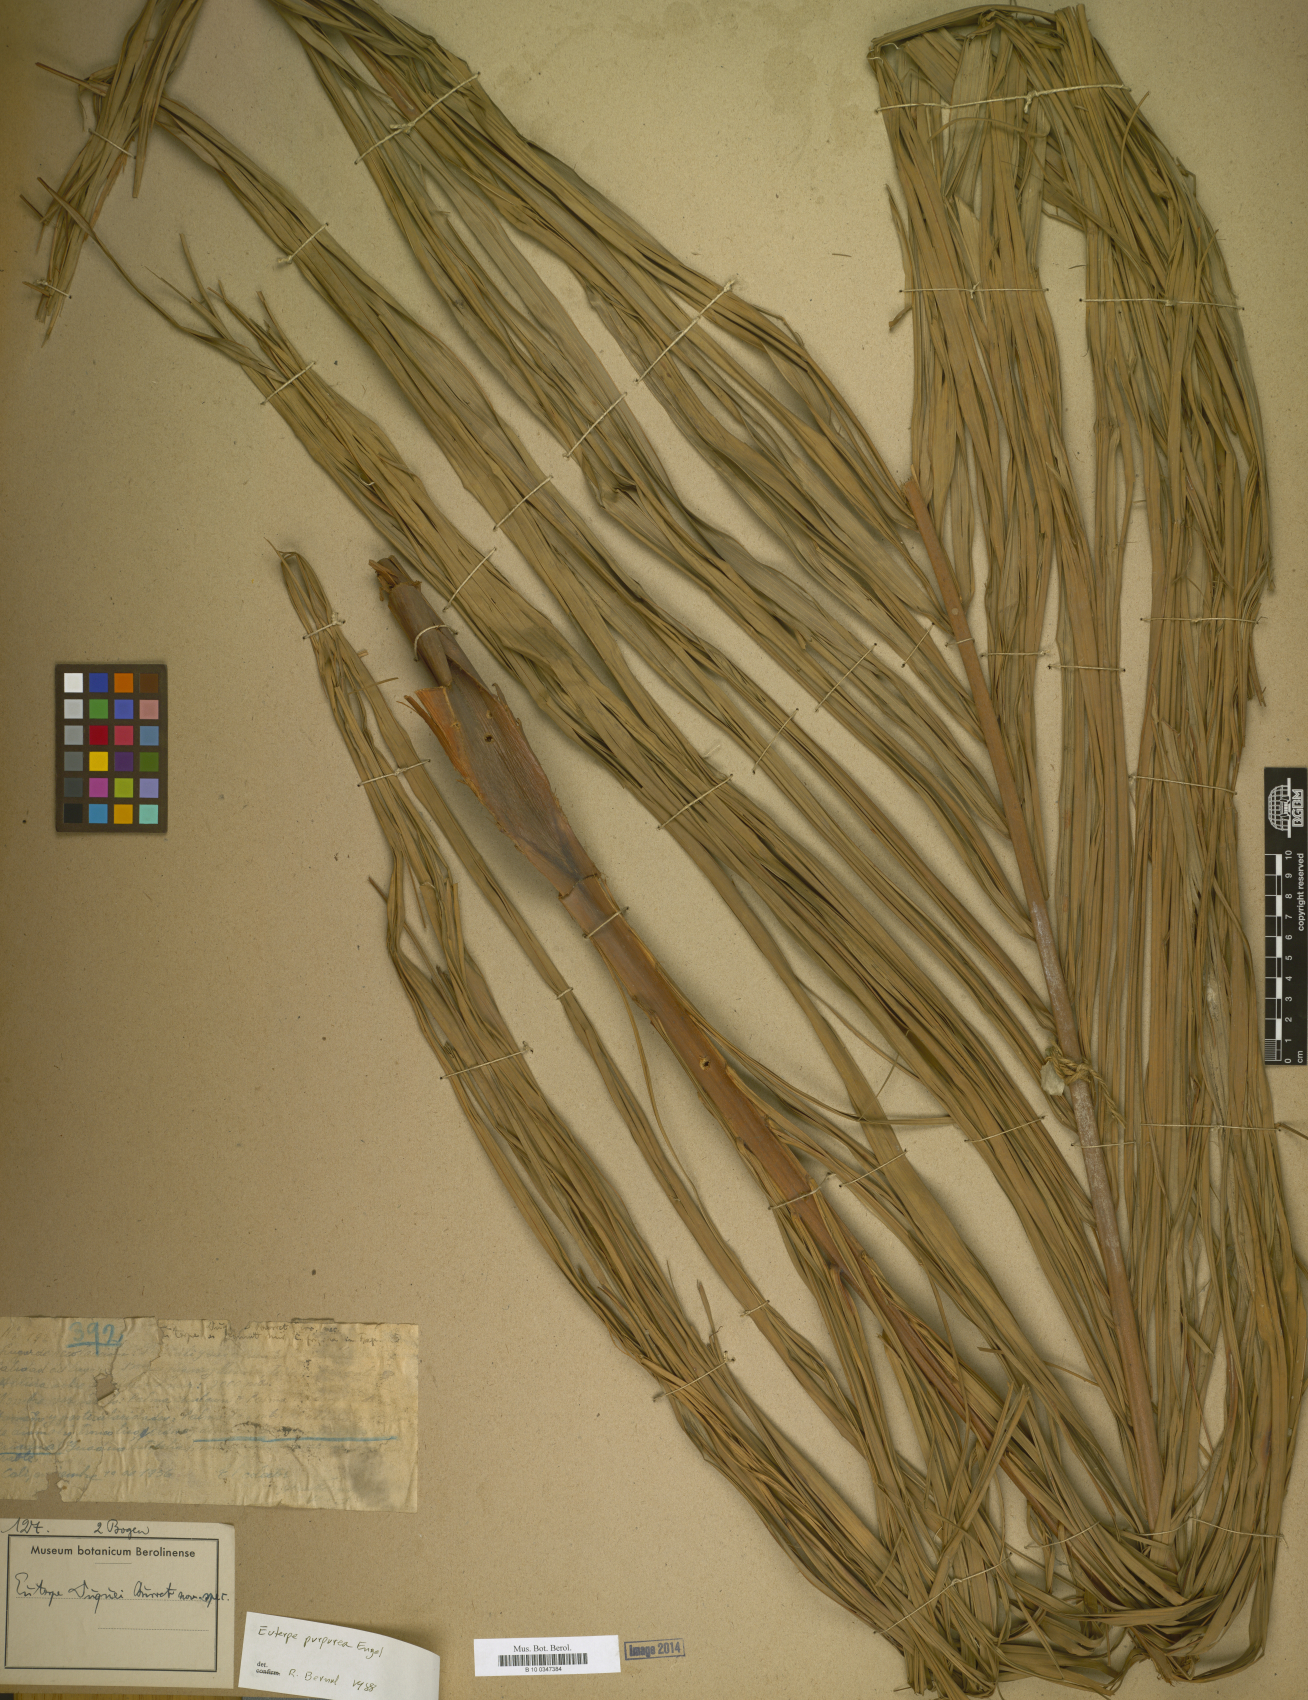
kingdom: Plantae
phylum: Tracheophyta
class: Liliopsida
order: Arecales
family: Arecaceae
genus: Prestoea
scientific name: Prestoea acuminata
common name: Sierran palm
